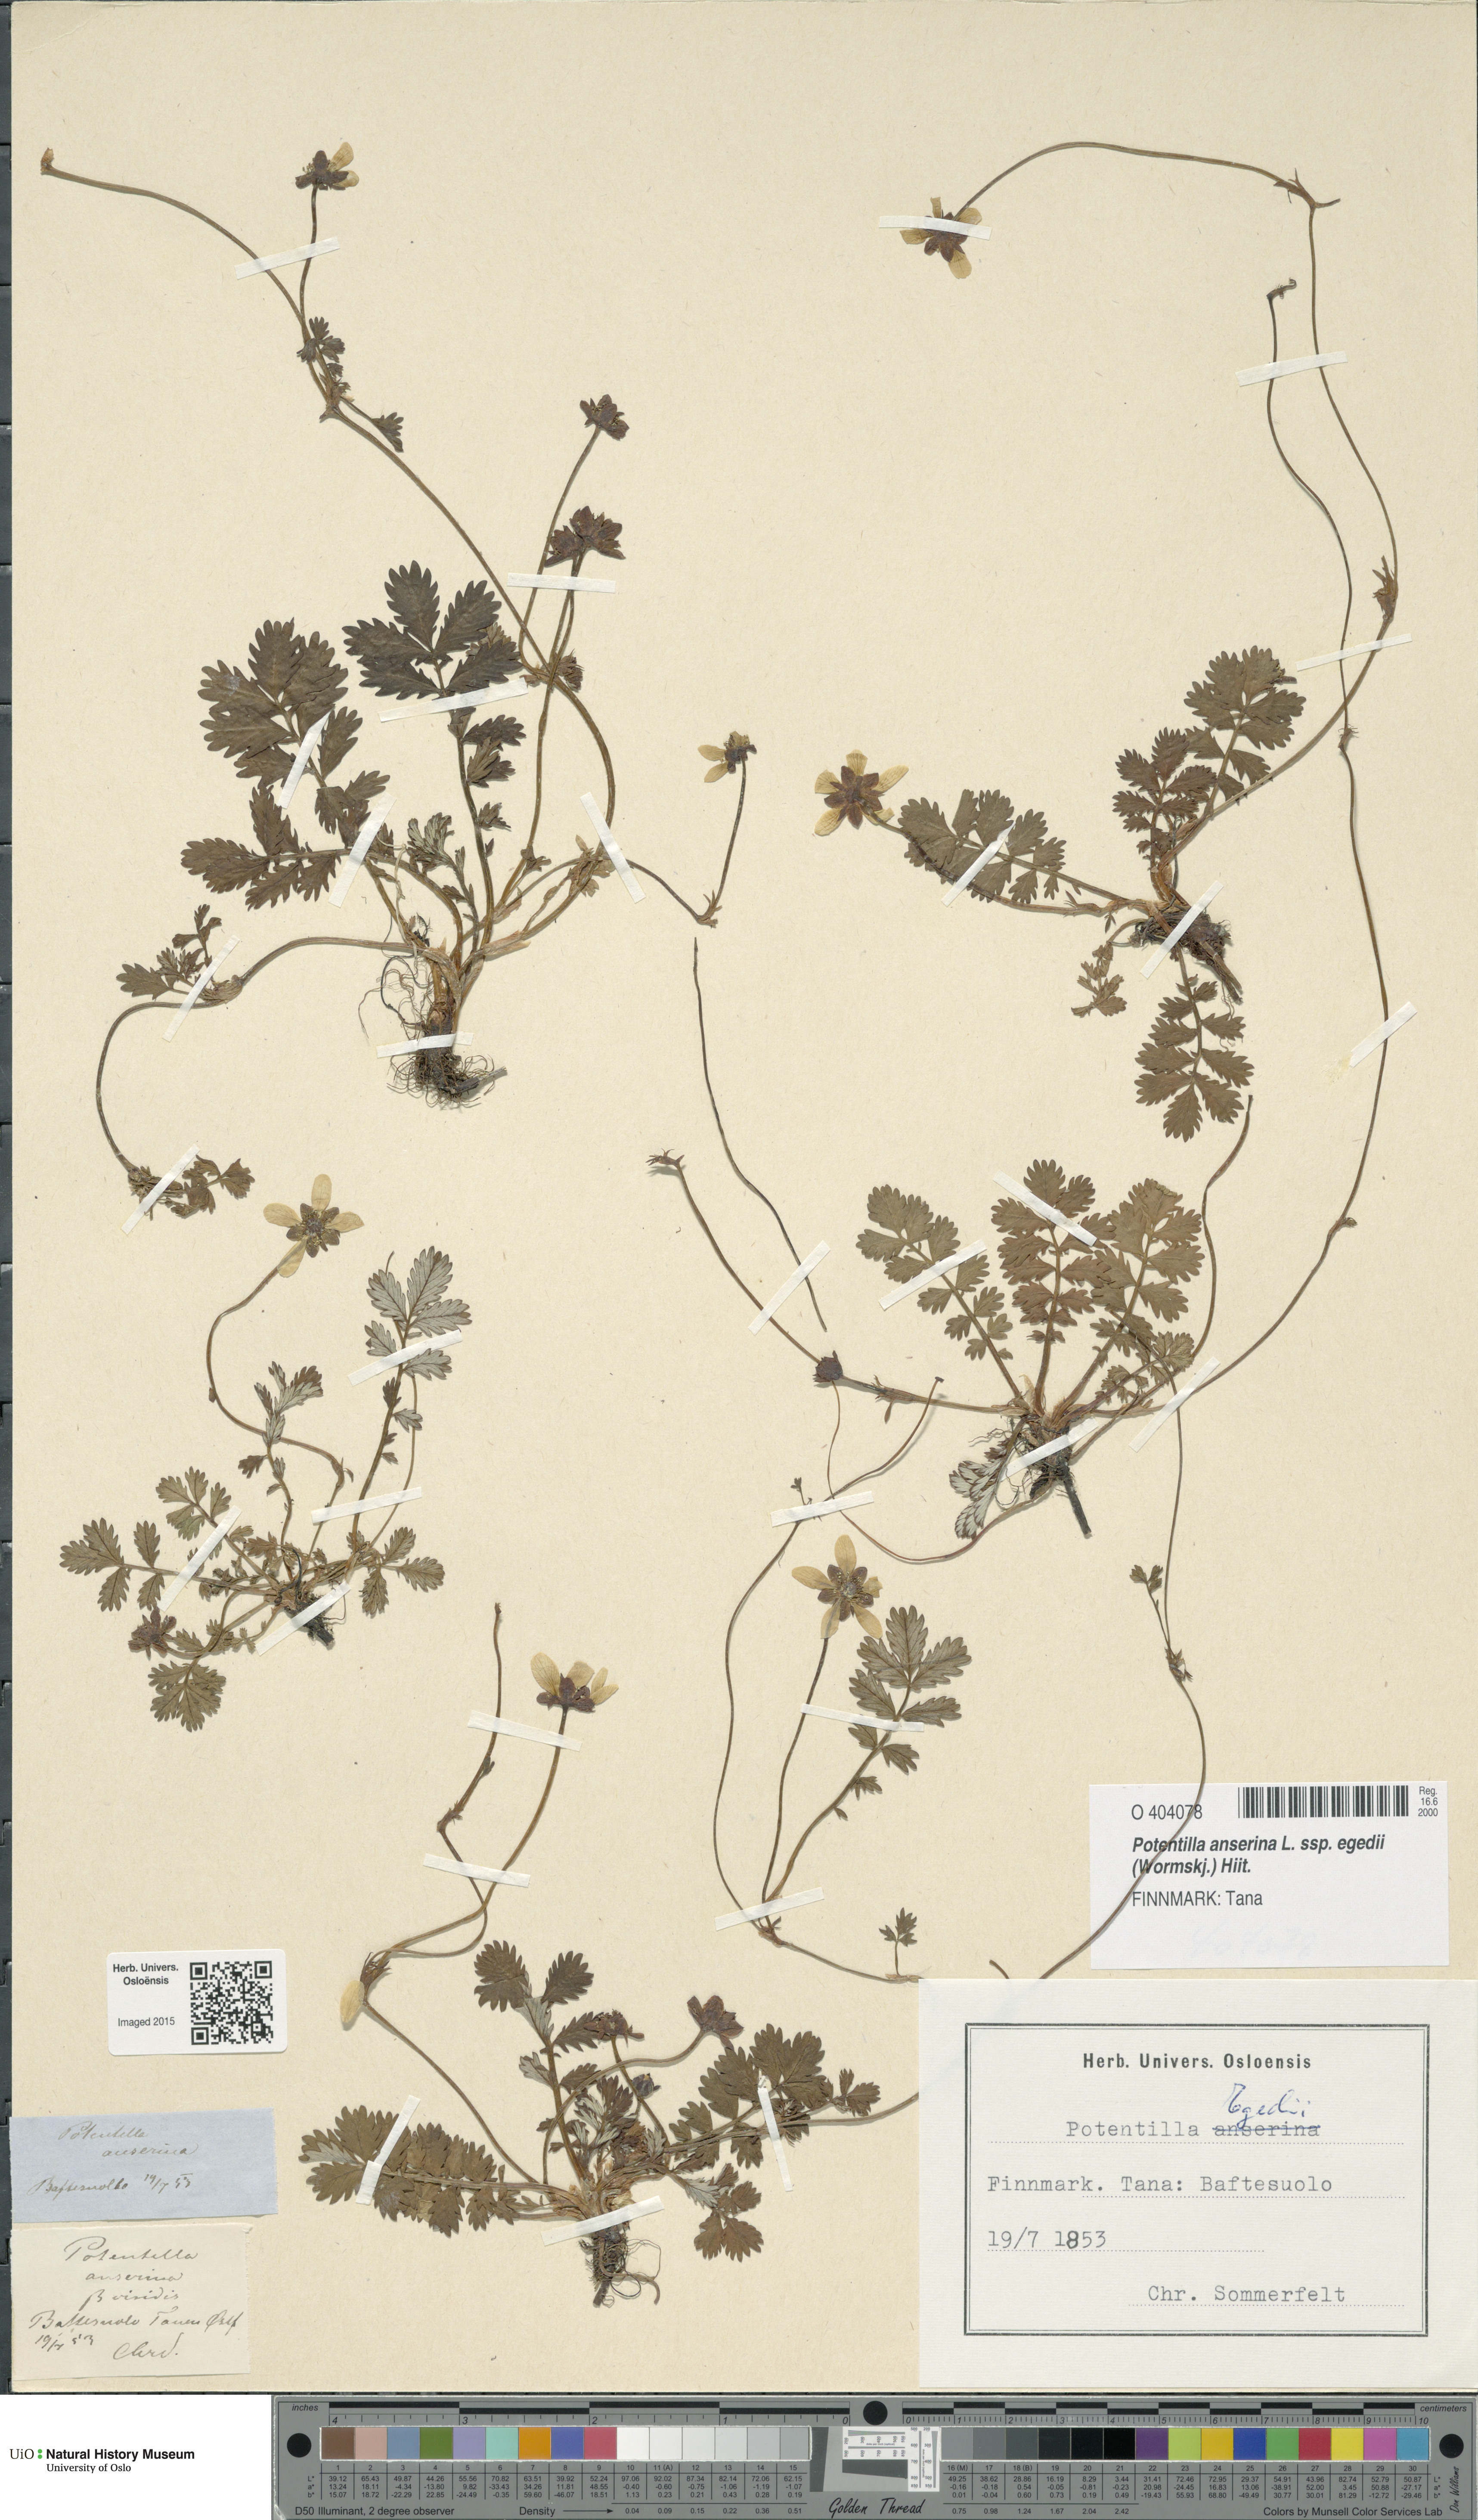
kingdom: Plantae
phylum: Tracheophyta
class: Magnoliopsida
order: Rosales
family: Rosaceae
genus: Argentina
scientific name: Argentina anserina
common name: Common silverweed
